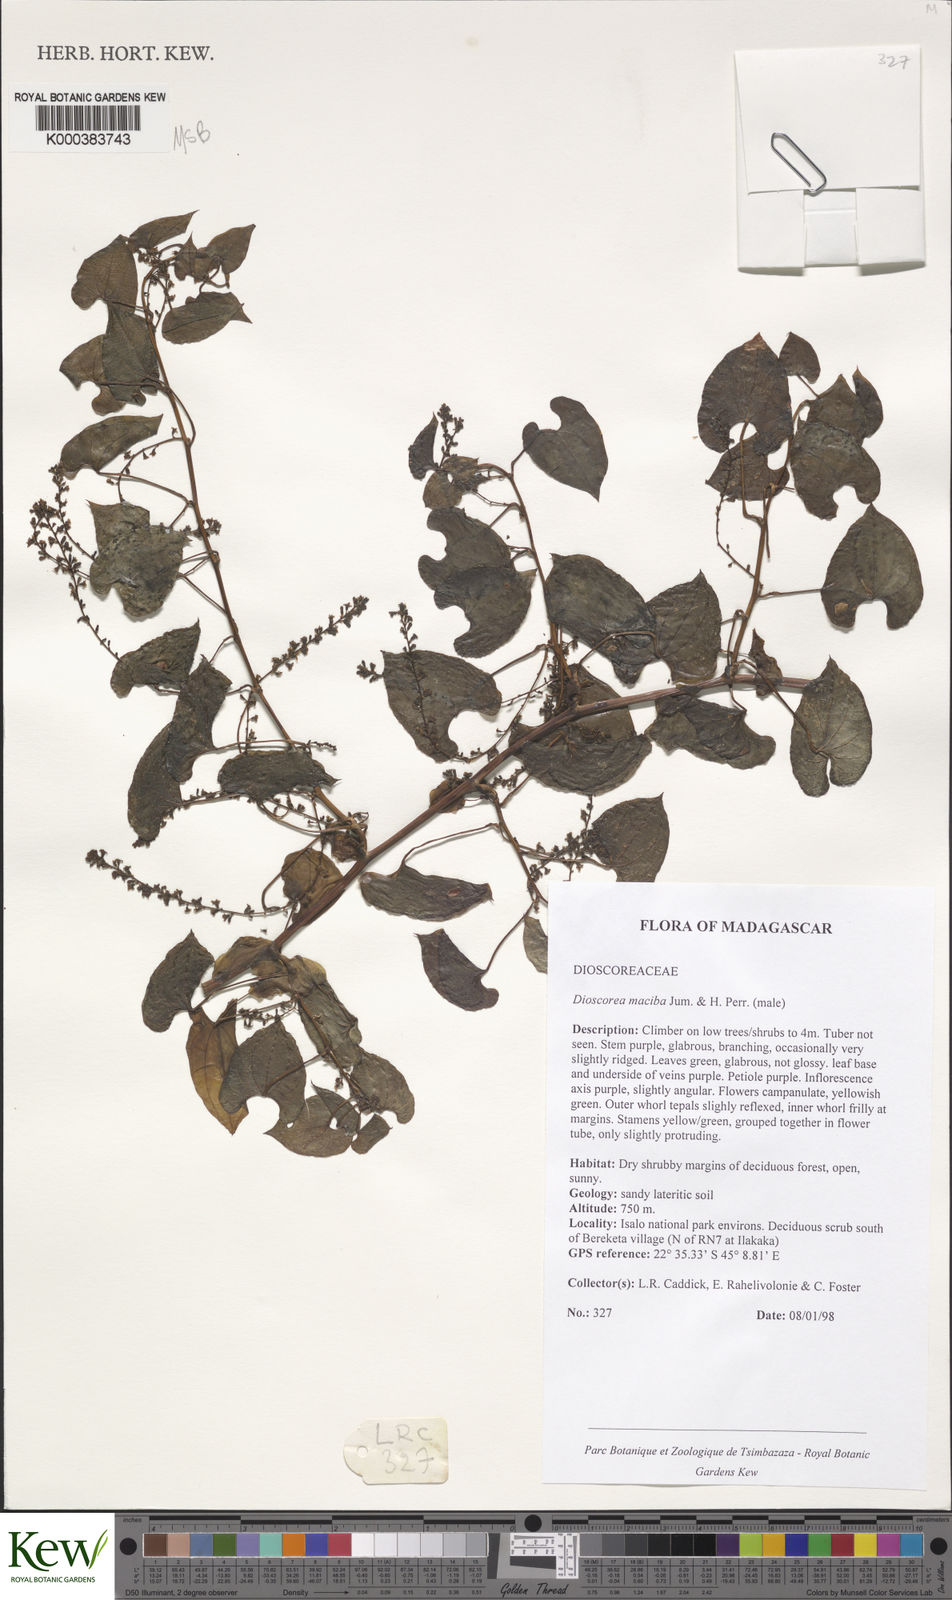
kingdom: Plantae
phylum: Tracheophyta
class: Liliopsida
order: Dioscoreales
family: Dioscoreaceae
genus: Dioscorea
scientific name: Dioscorea
